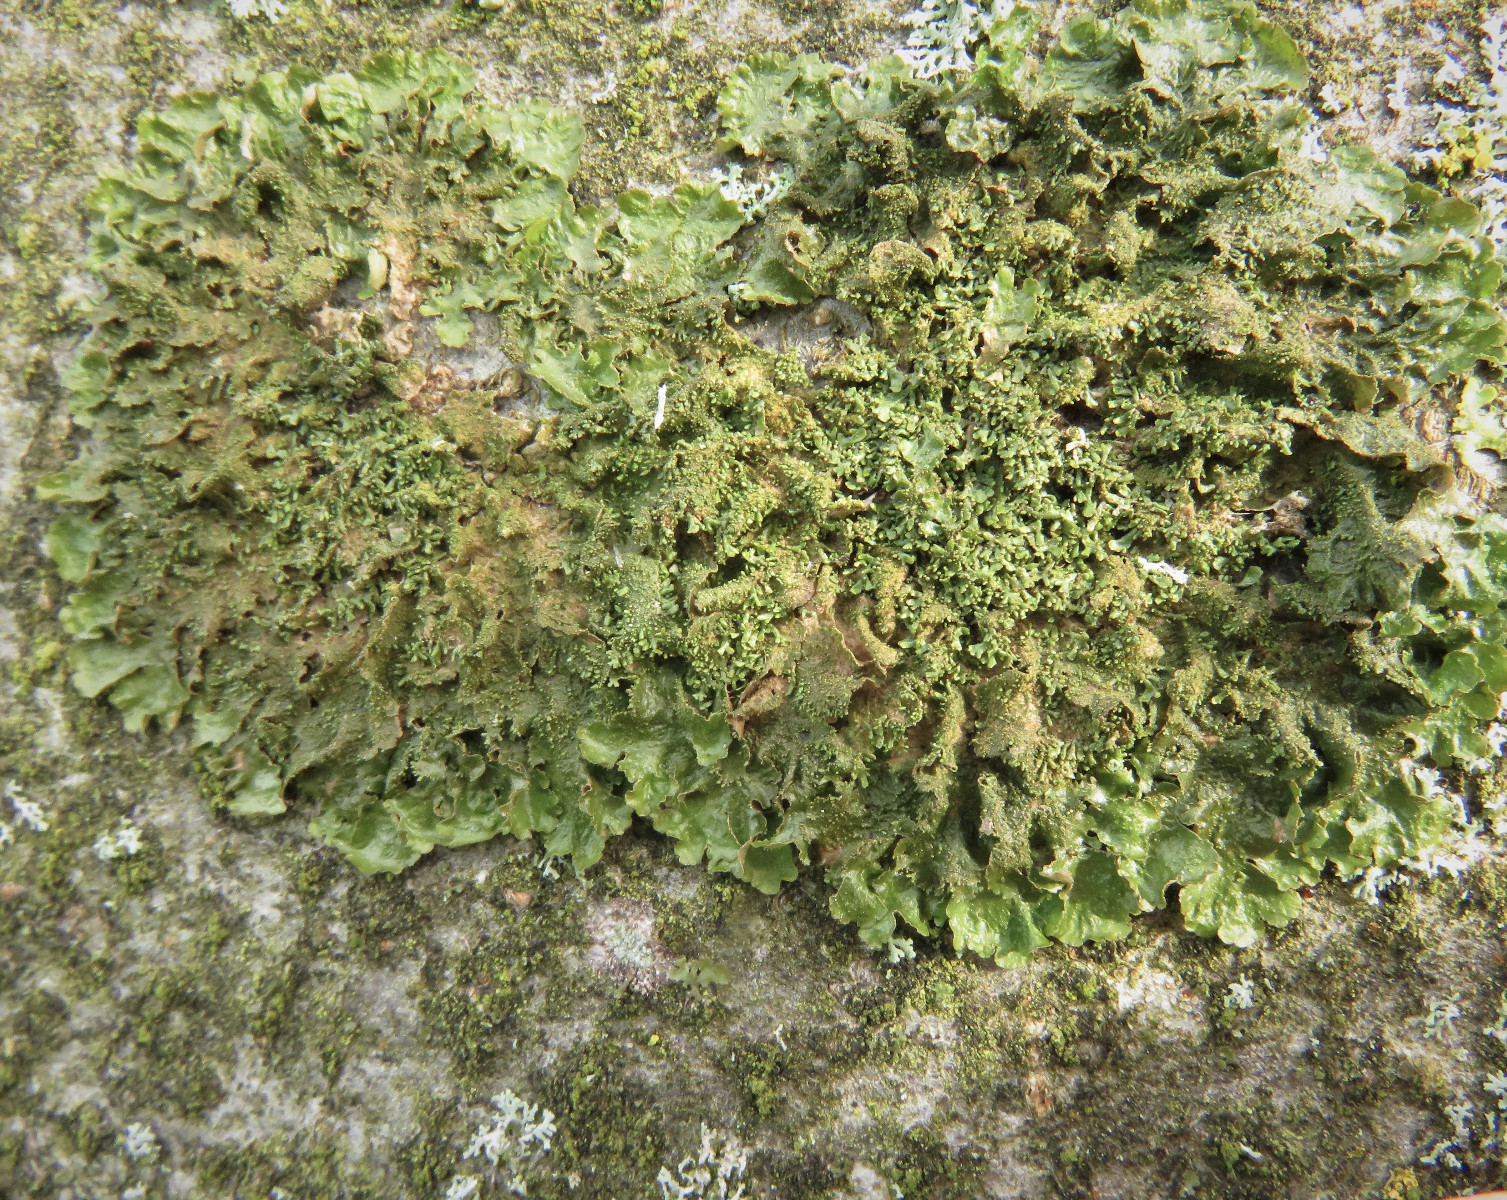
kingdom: Fungi
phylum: Ascomycota
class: Lecanoromycetes
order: Lecanorales
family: Parmeliaceae
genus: Melanohalea
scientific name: Melanohalea exasperatula
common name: kølle-skållav
